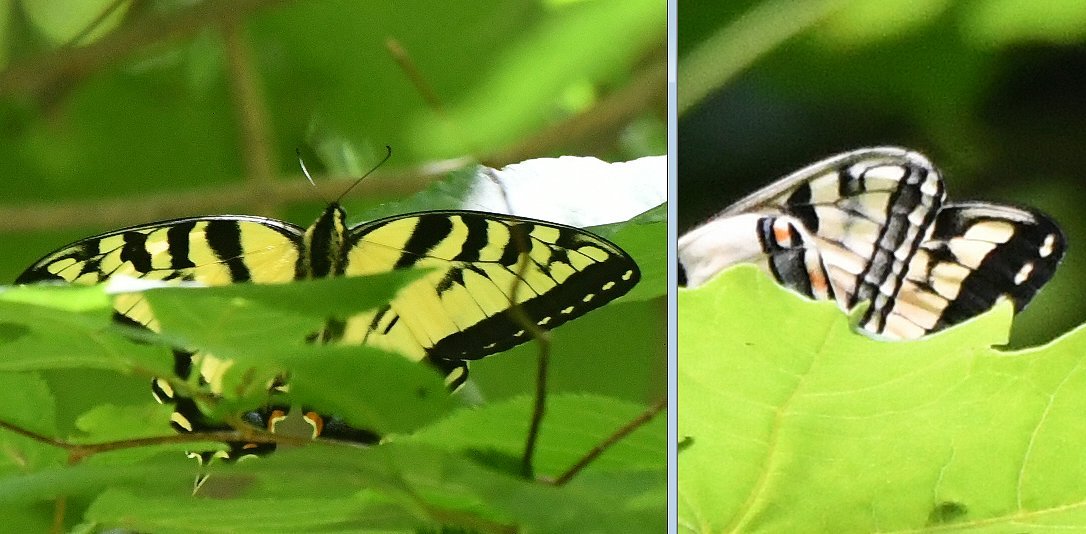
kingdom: Animalia
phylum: Arthropoda
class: Insecta
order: Lepidoptera
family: Papilionidae
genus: Pterourus
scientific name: Pterourus
